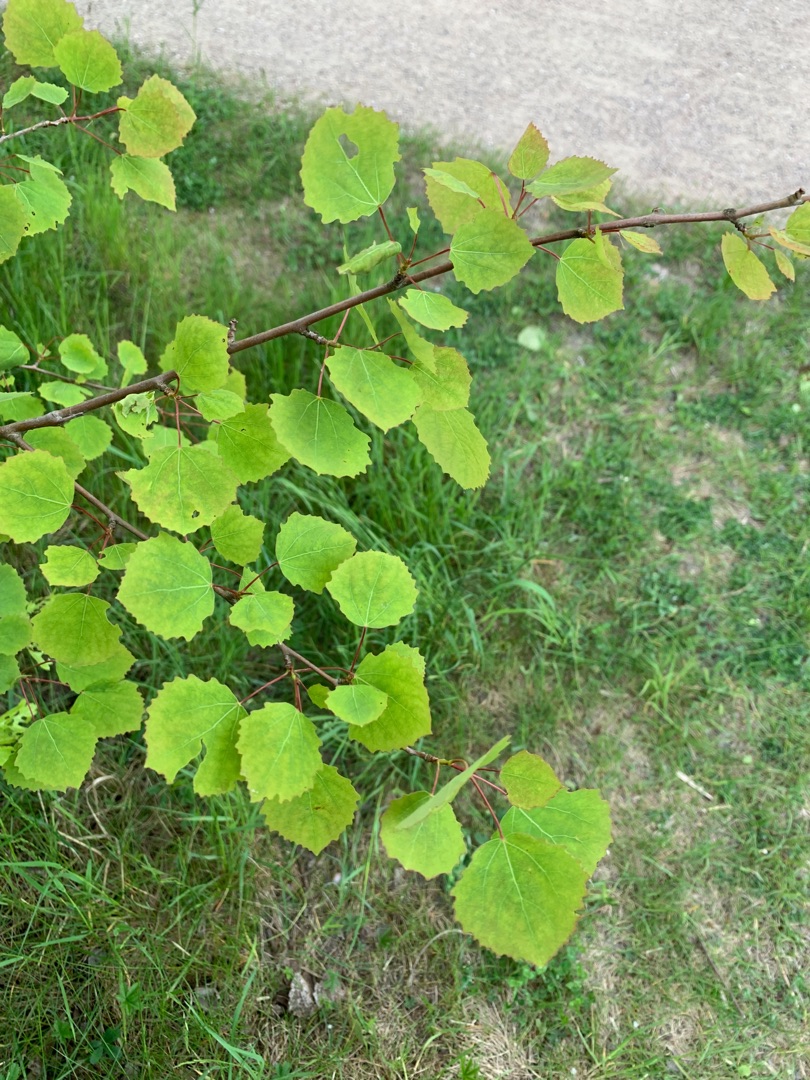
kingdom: Plantae
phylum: Tracheophyta
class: Magnoliopsida
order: Malpighiales
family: Salicaceae
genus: Populus
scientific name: Populus tremula
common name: Bævreasp
